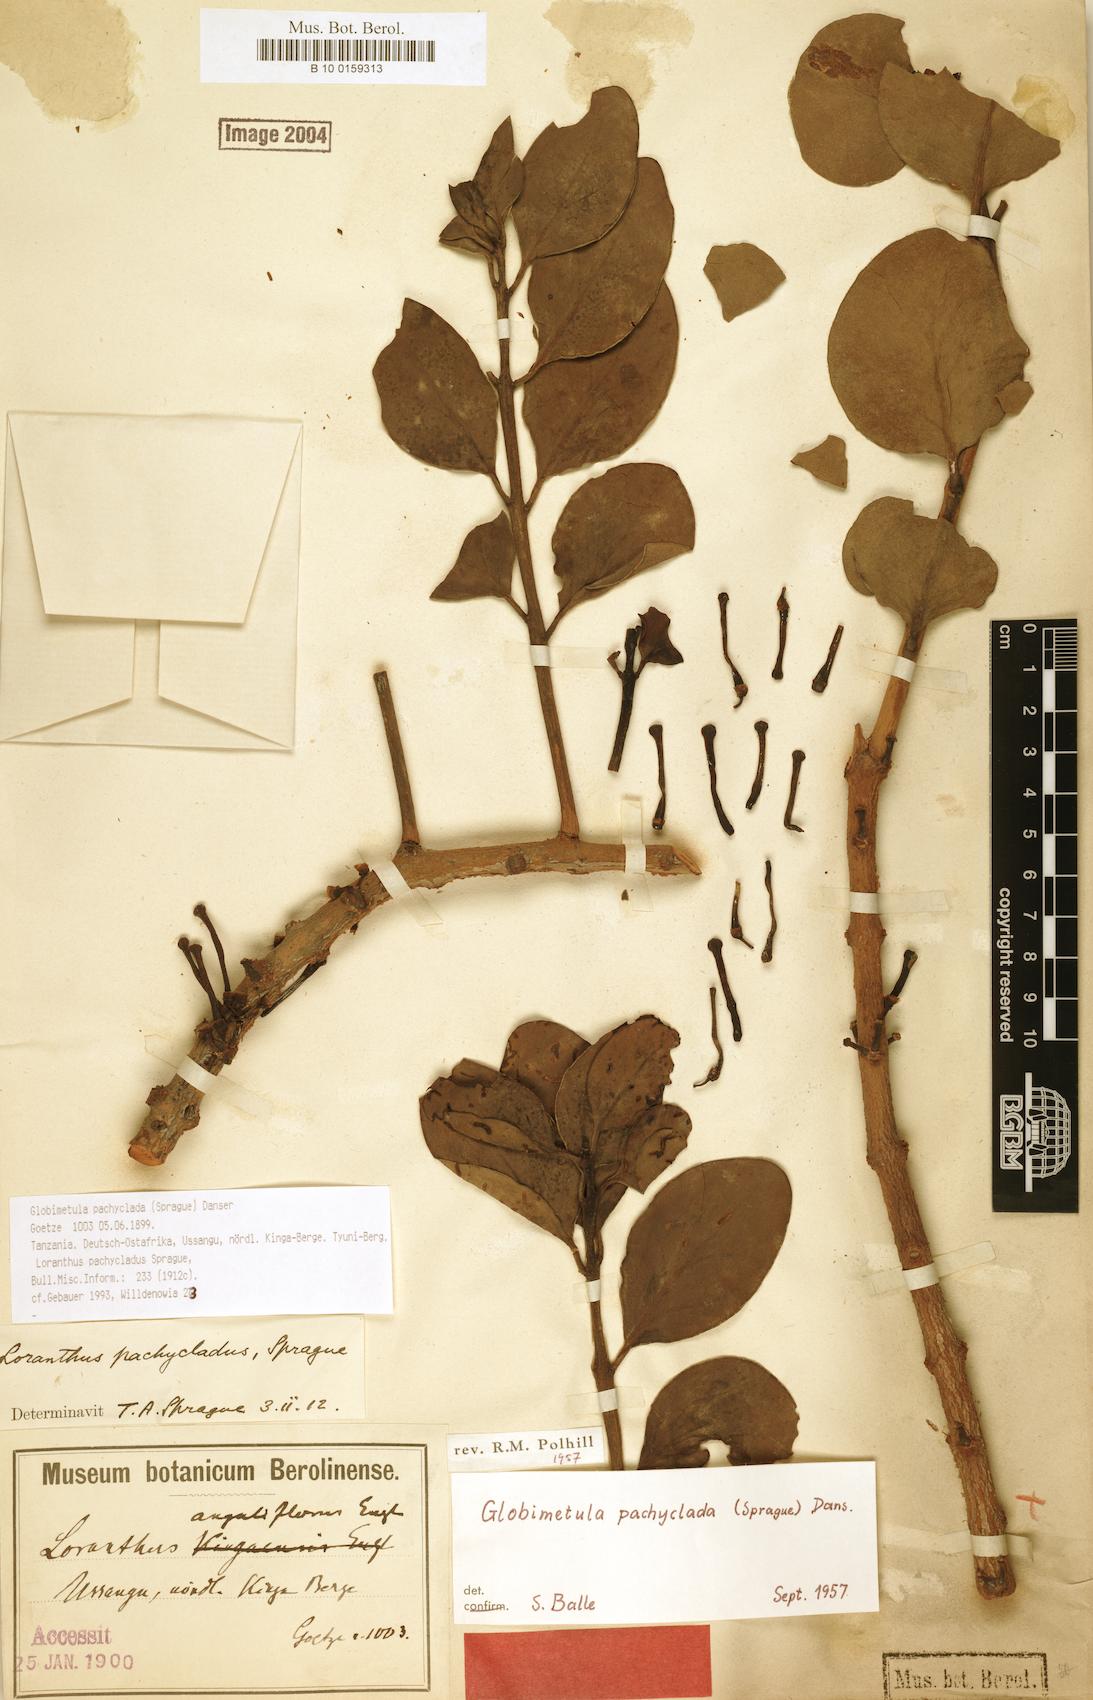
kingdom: Plantae
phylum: Tracheophyta
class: Magnoliopsida
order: Santalales
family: Loranthaceae
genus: Globimetula
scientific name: Globimetula pachyclada
